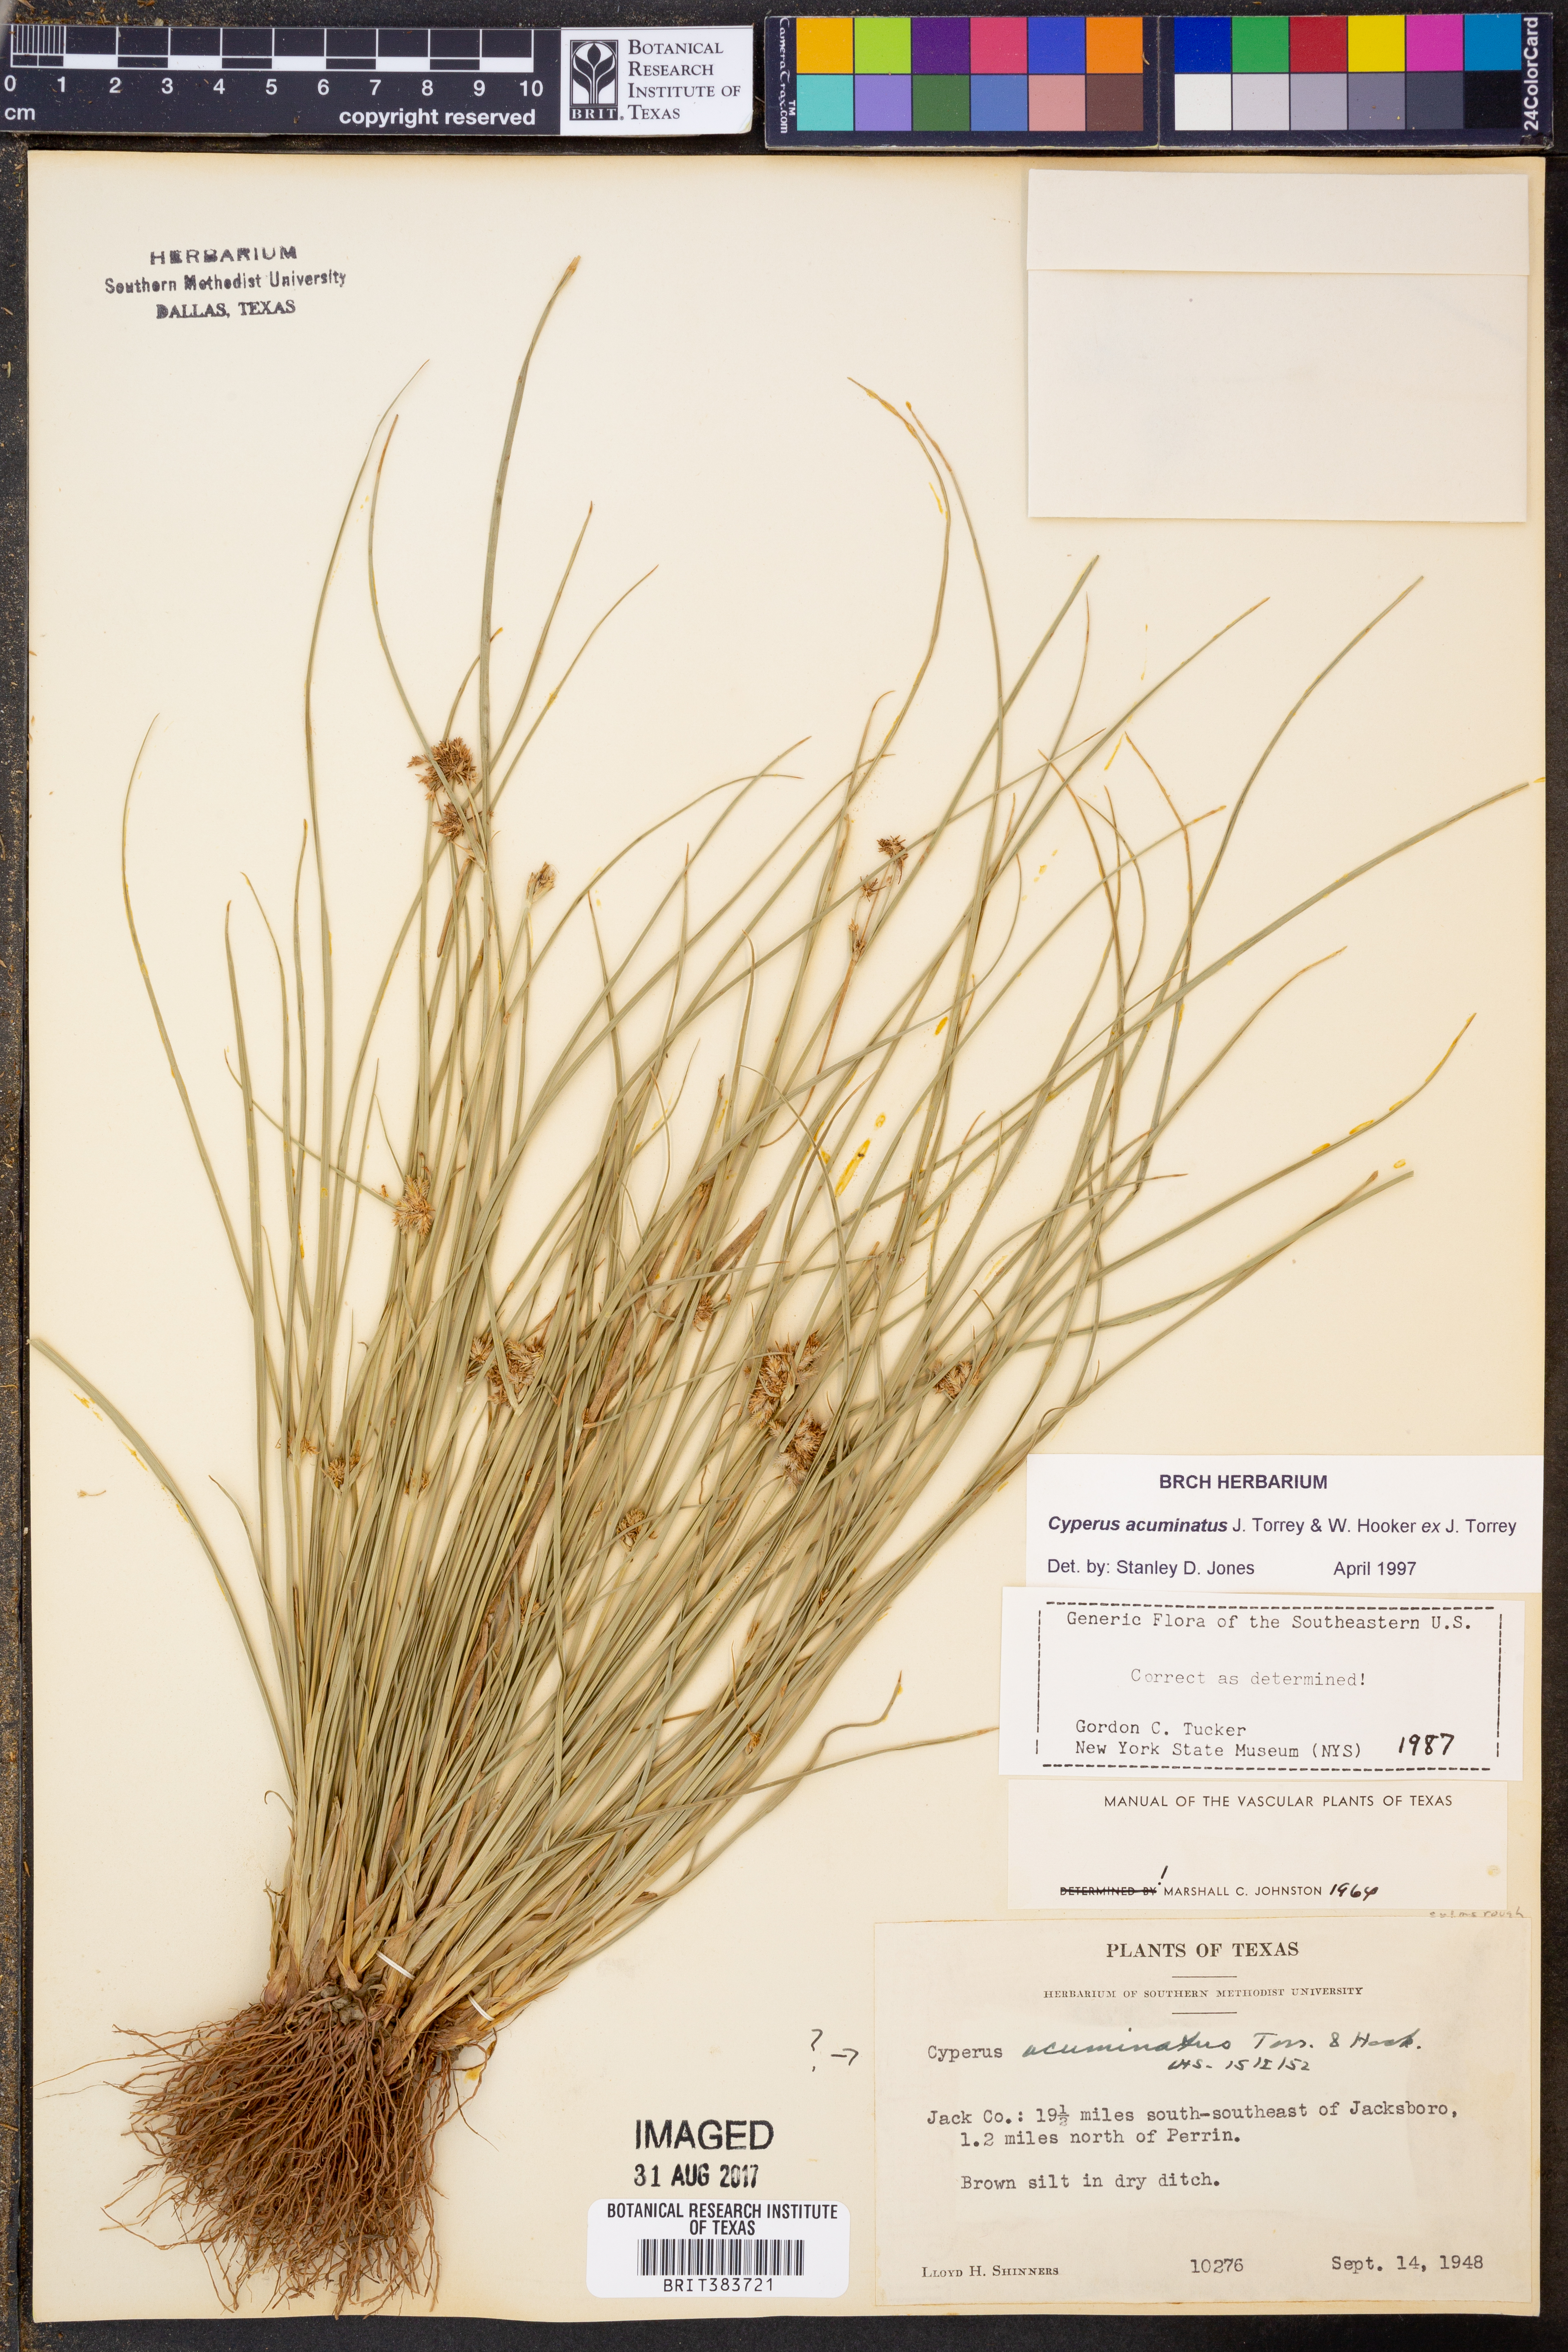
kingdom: Plantae
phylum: Tracheophyta
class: Liliopsida
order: Poales
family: Cyperaceae
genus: Cyperus
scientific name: Cyperus acuminatus
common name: Short-pointed cyperus
